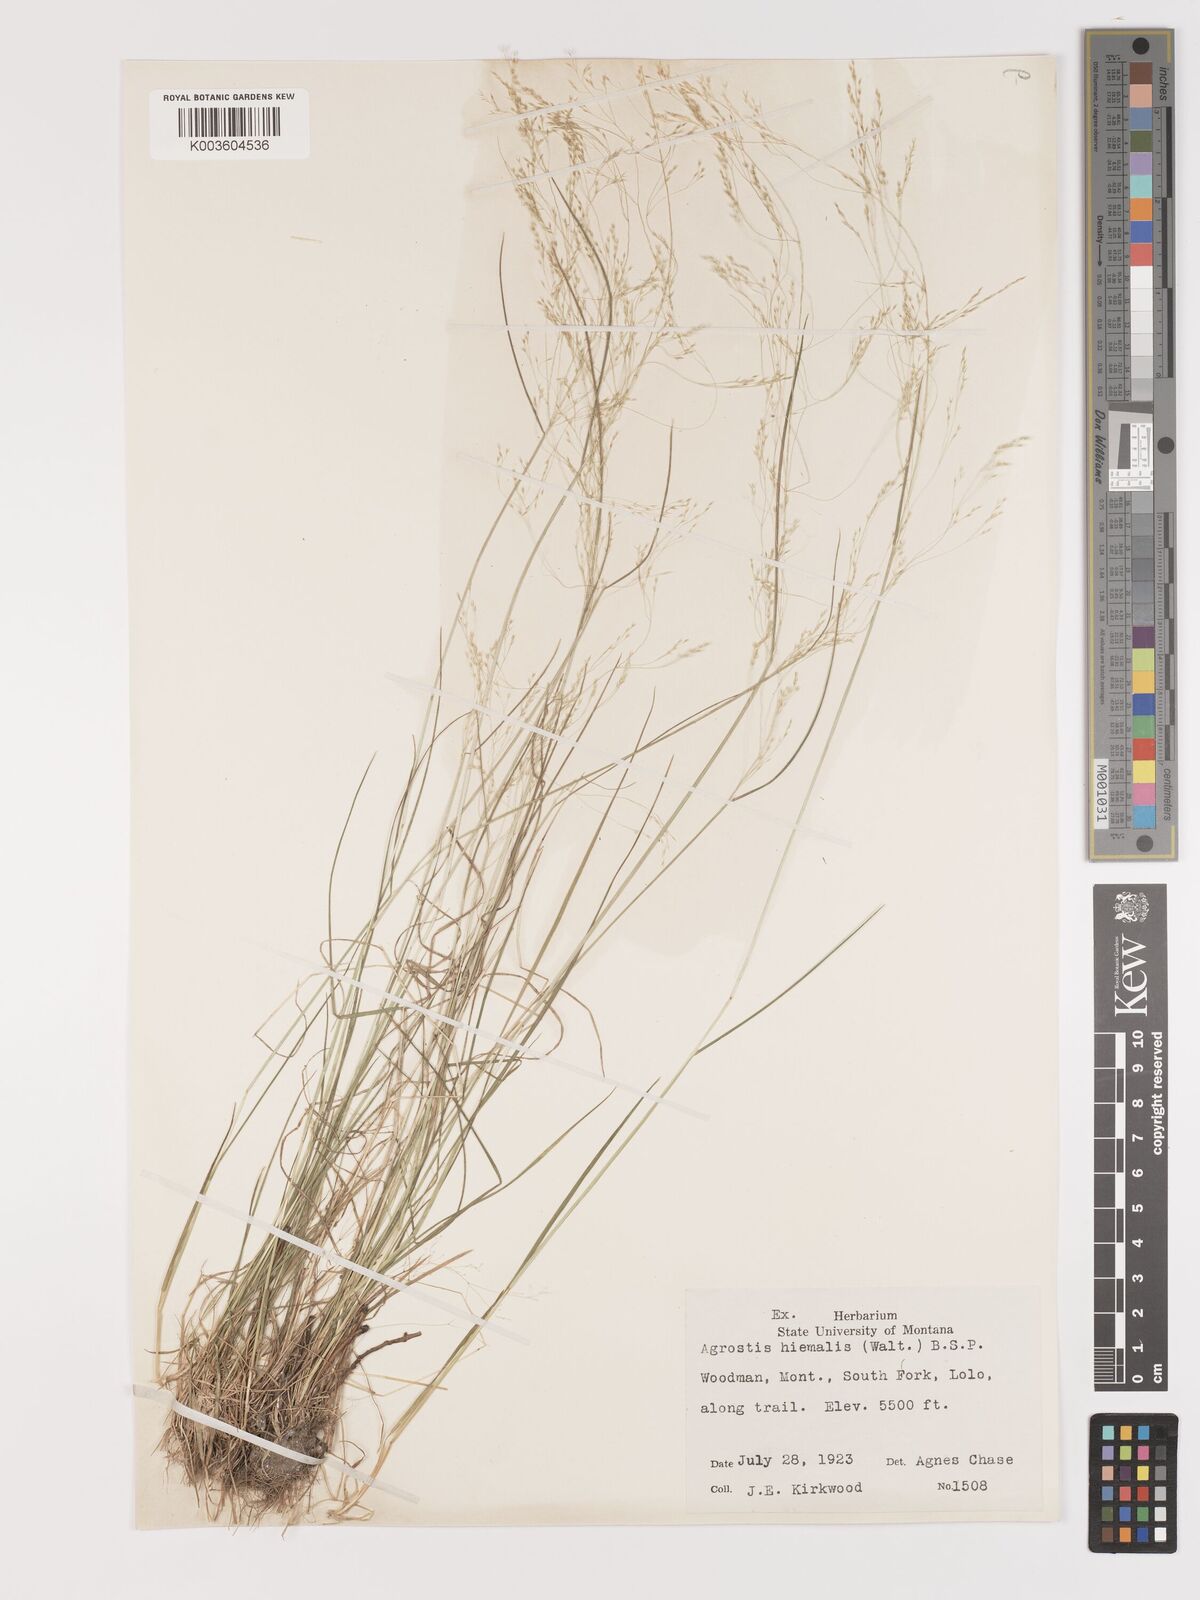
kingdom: Plantae
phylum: Tracheophyta
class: Liliopsida
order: Poales
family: Poaceae
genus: Agrostis
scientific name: Agrostis hyemalis
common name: Small bent
